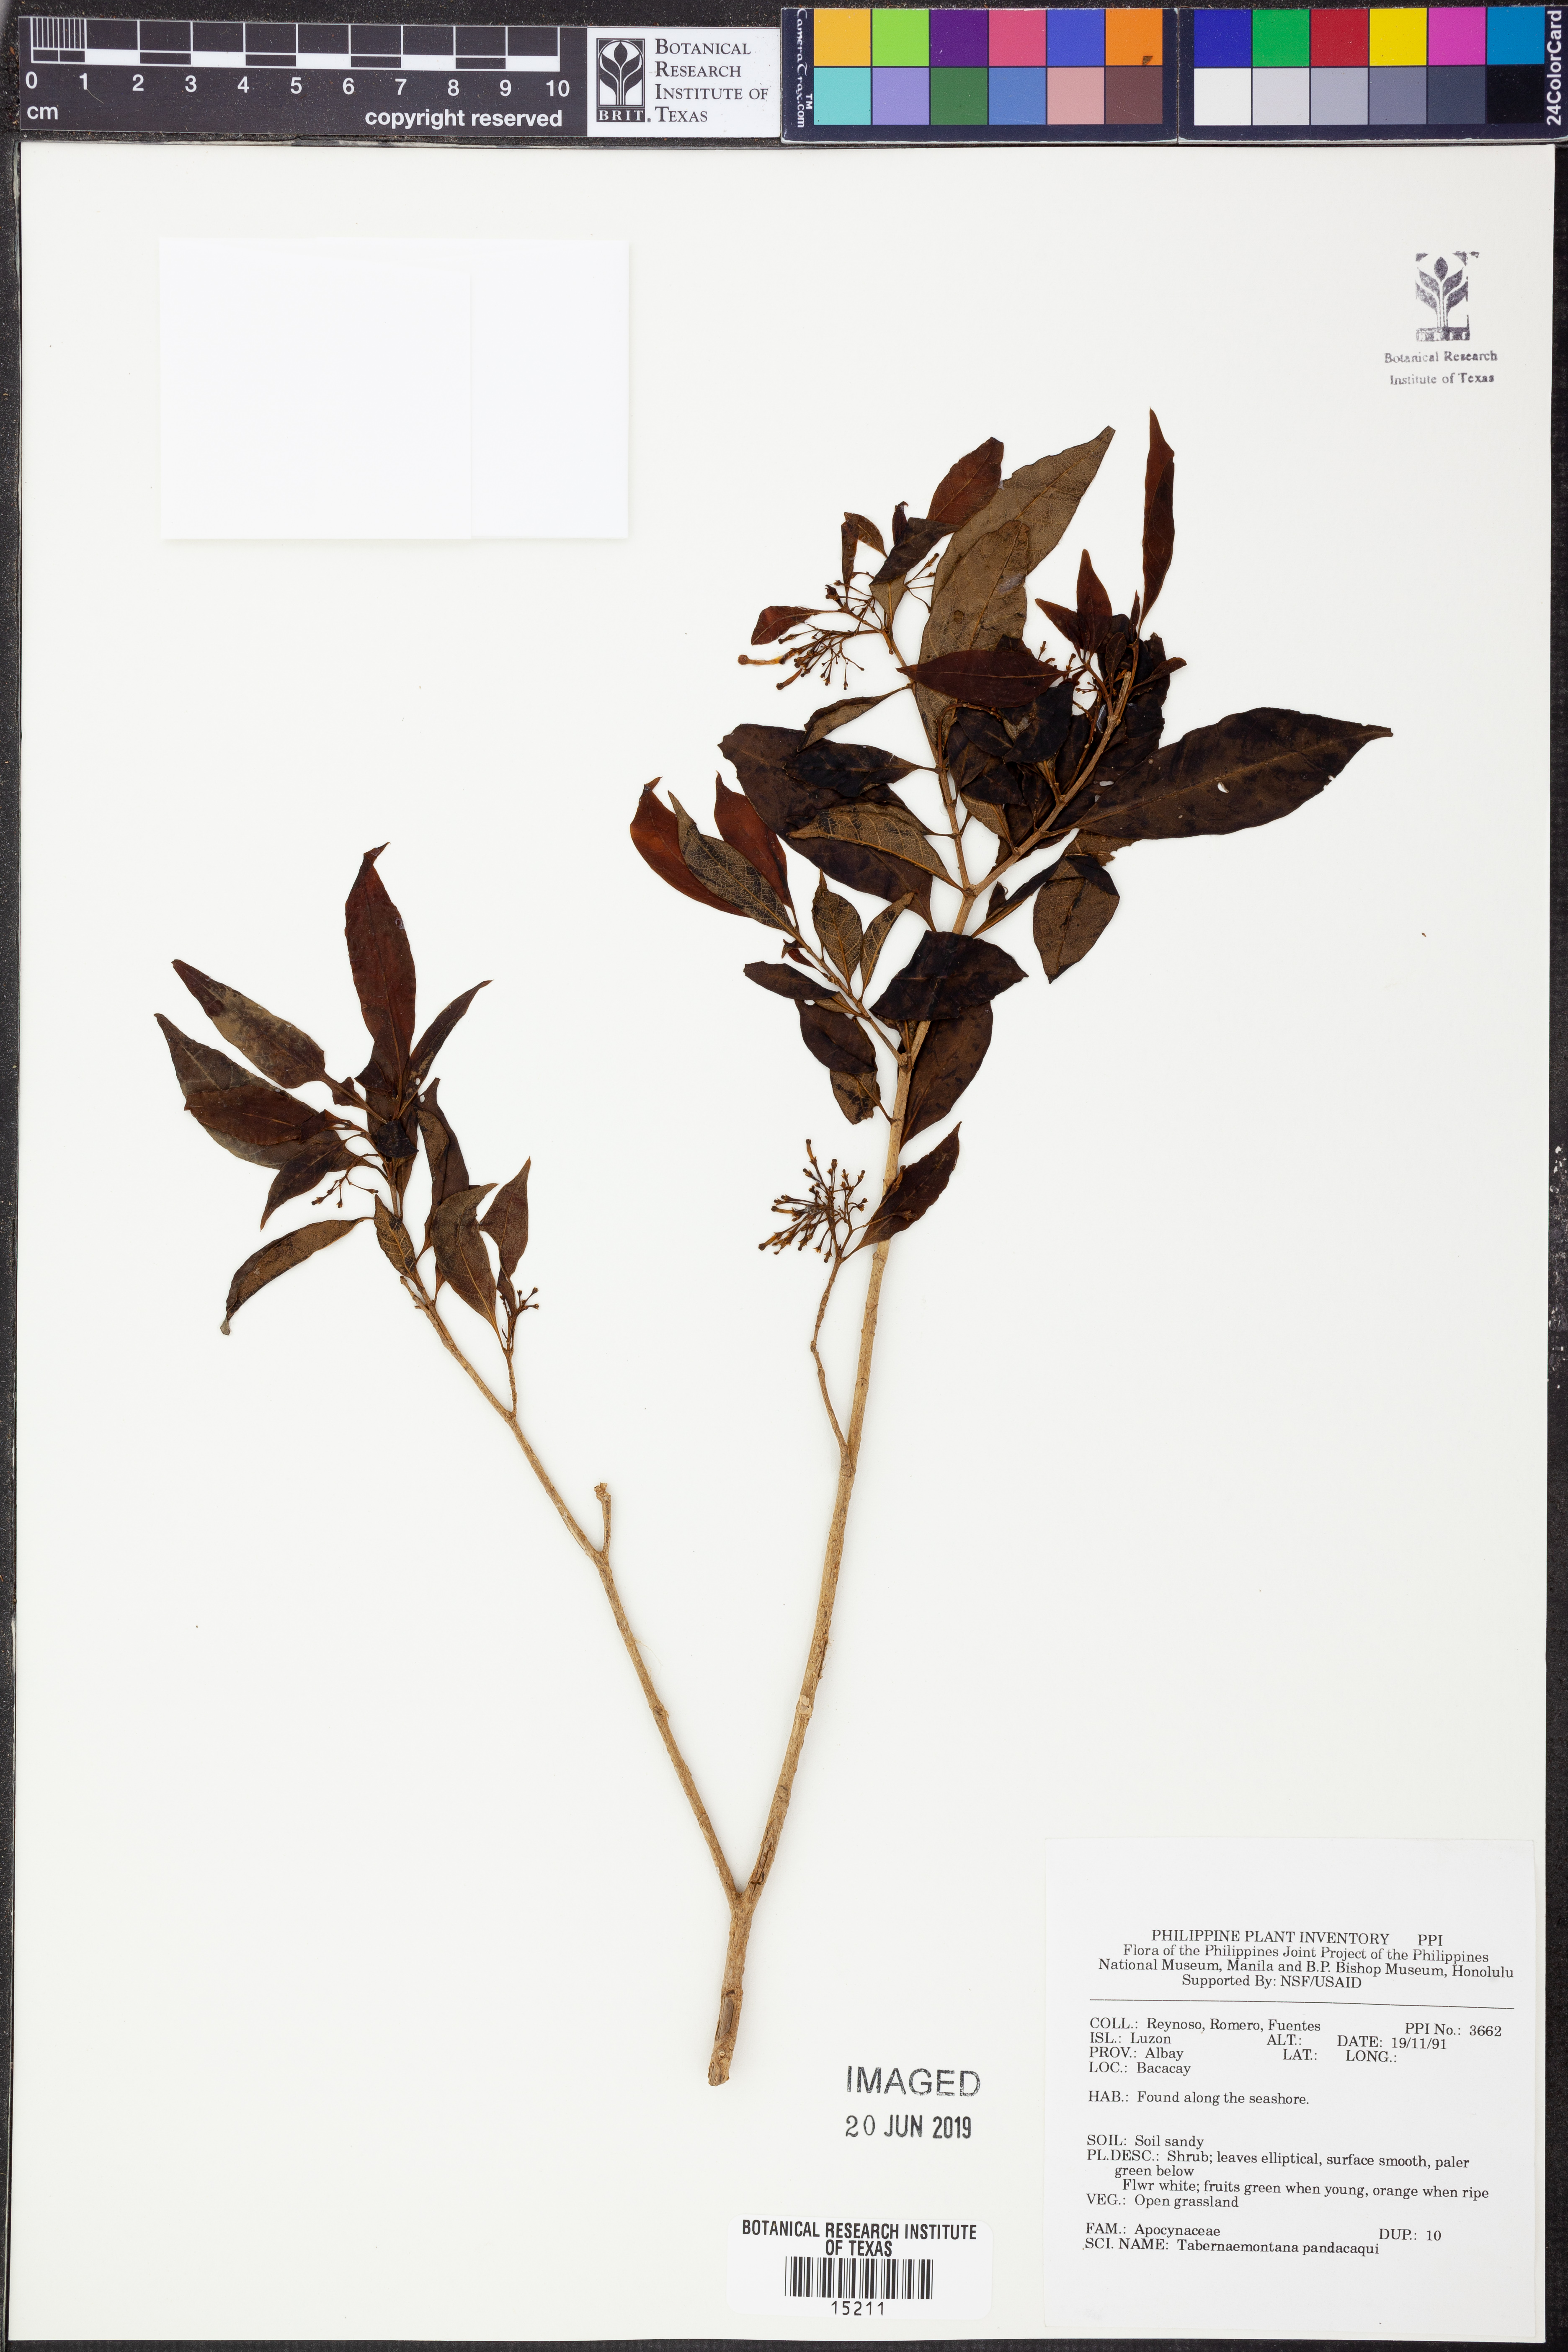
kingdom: Plantae
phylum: Tracheophyta
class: Magnoliopsida
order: Gentianales
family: Apocynaceae
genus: Tabernaemontana
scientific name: Tabernaemontana pandacaqui
